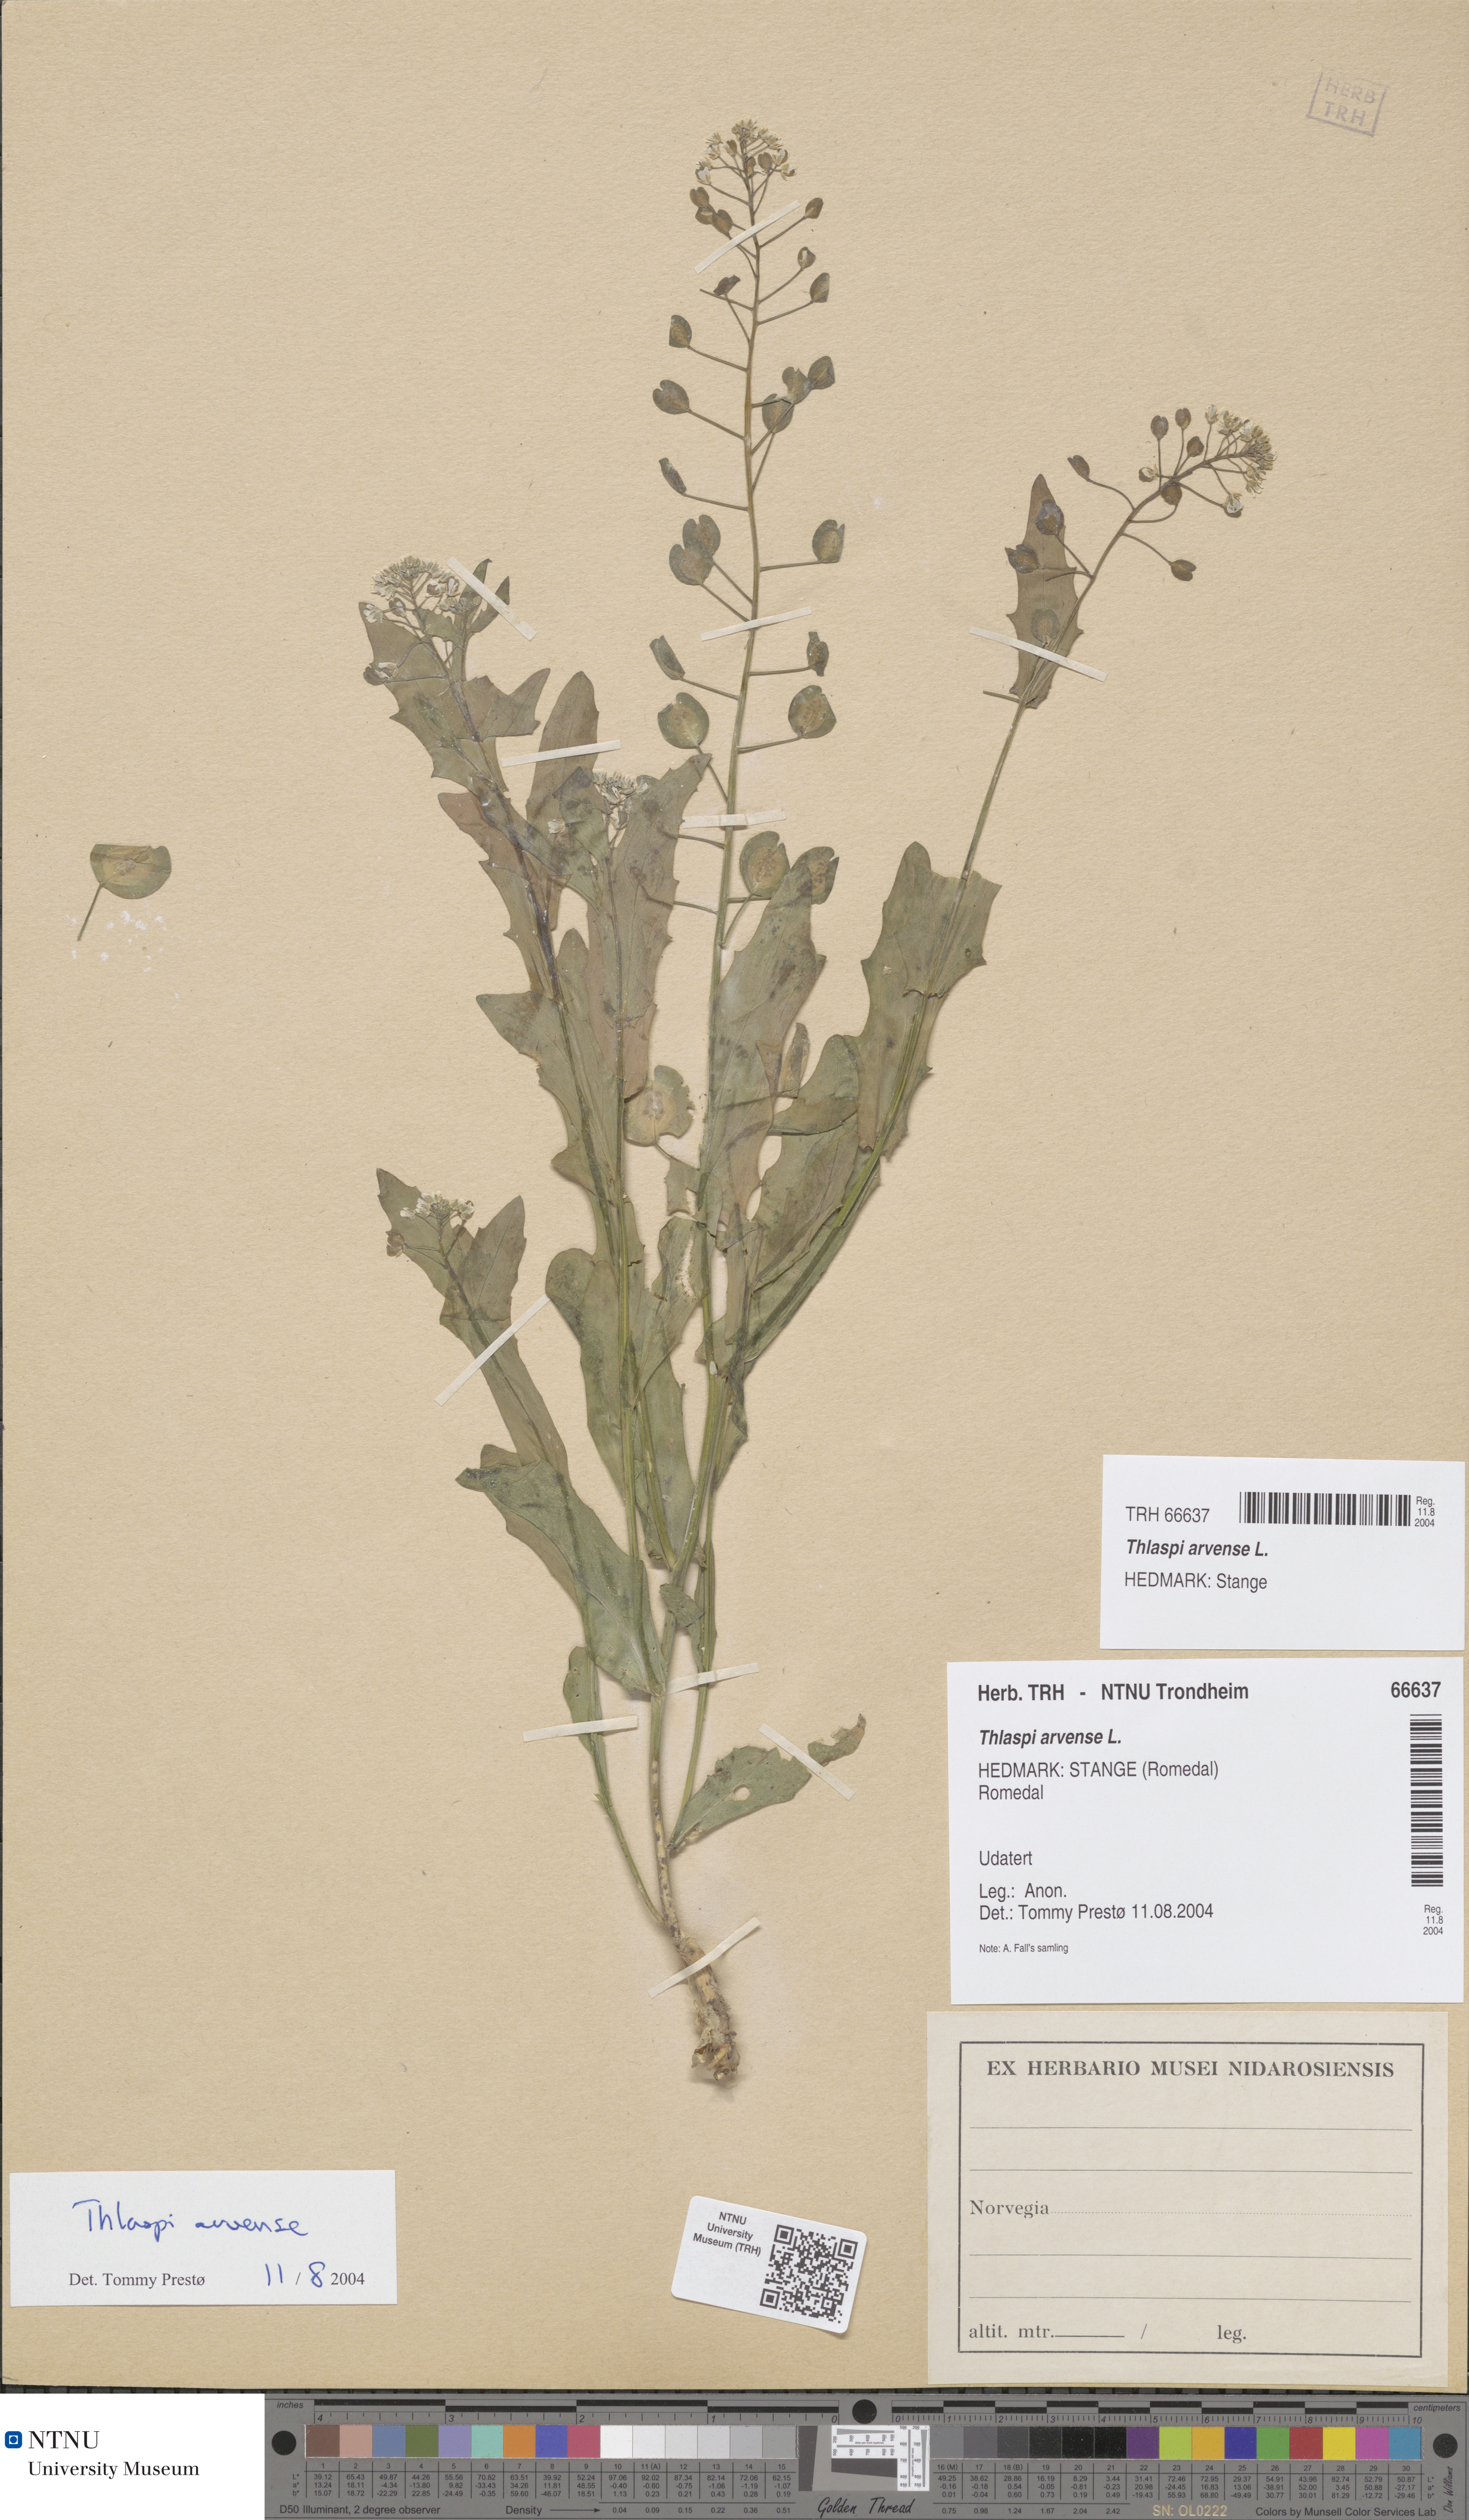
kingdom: Plantae
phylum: Tracheophyta
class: Magnoliopsida
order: Brassicales
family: Brassicaceae
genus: Thlaspi
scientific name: Thlaspi arvense
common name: Field pennycress
